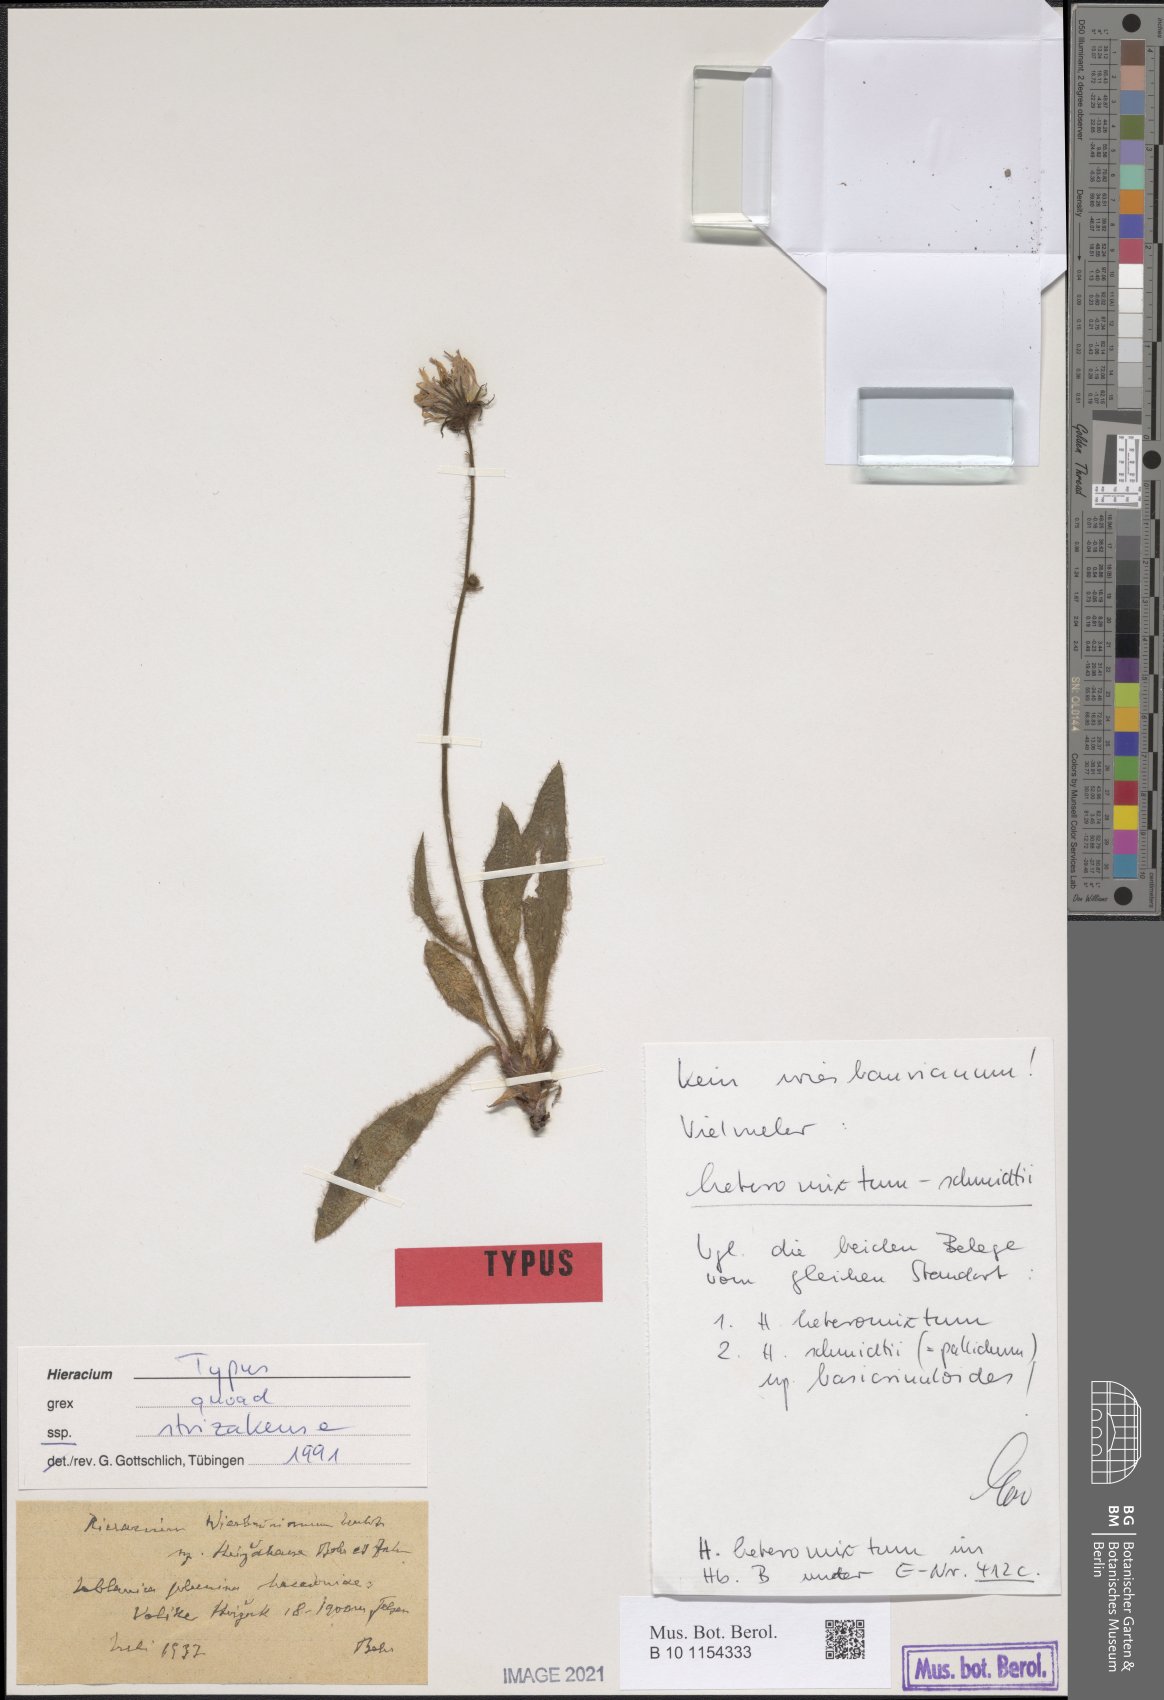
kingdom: Plantae
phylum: Tracheophyta
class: Magnoliopsida
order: Asterales
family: Asteraceae
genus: Hieracium
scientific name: Hieracium hypochoeroides
